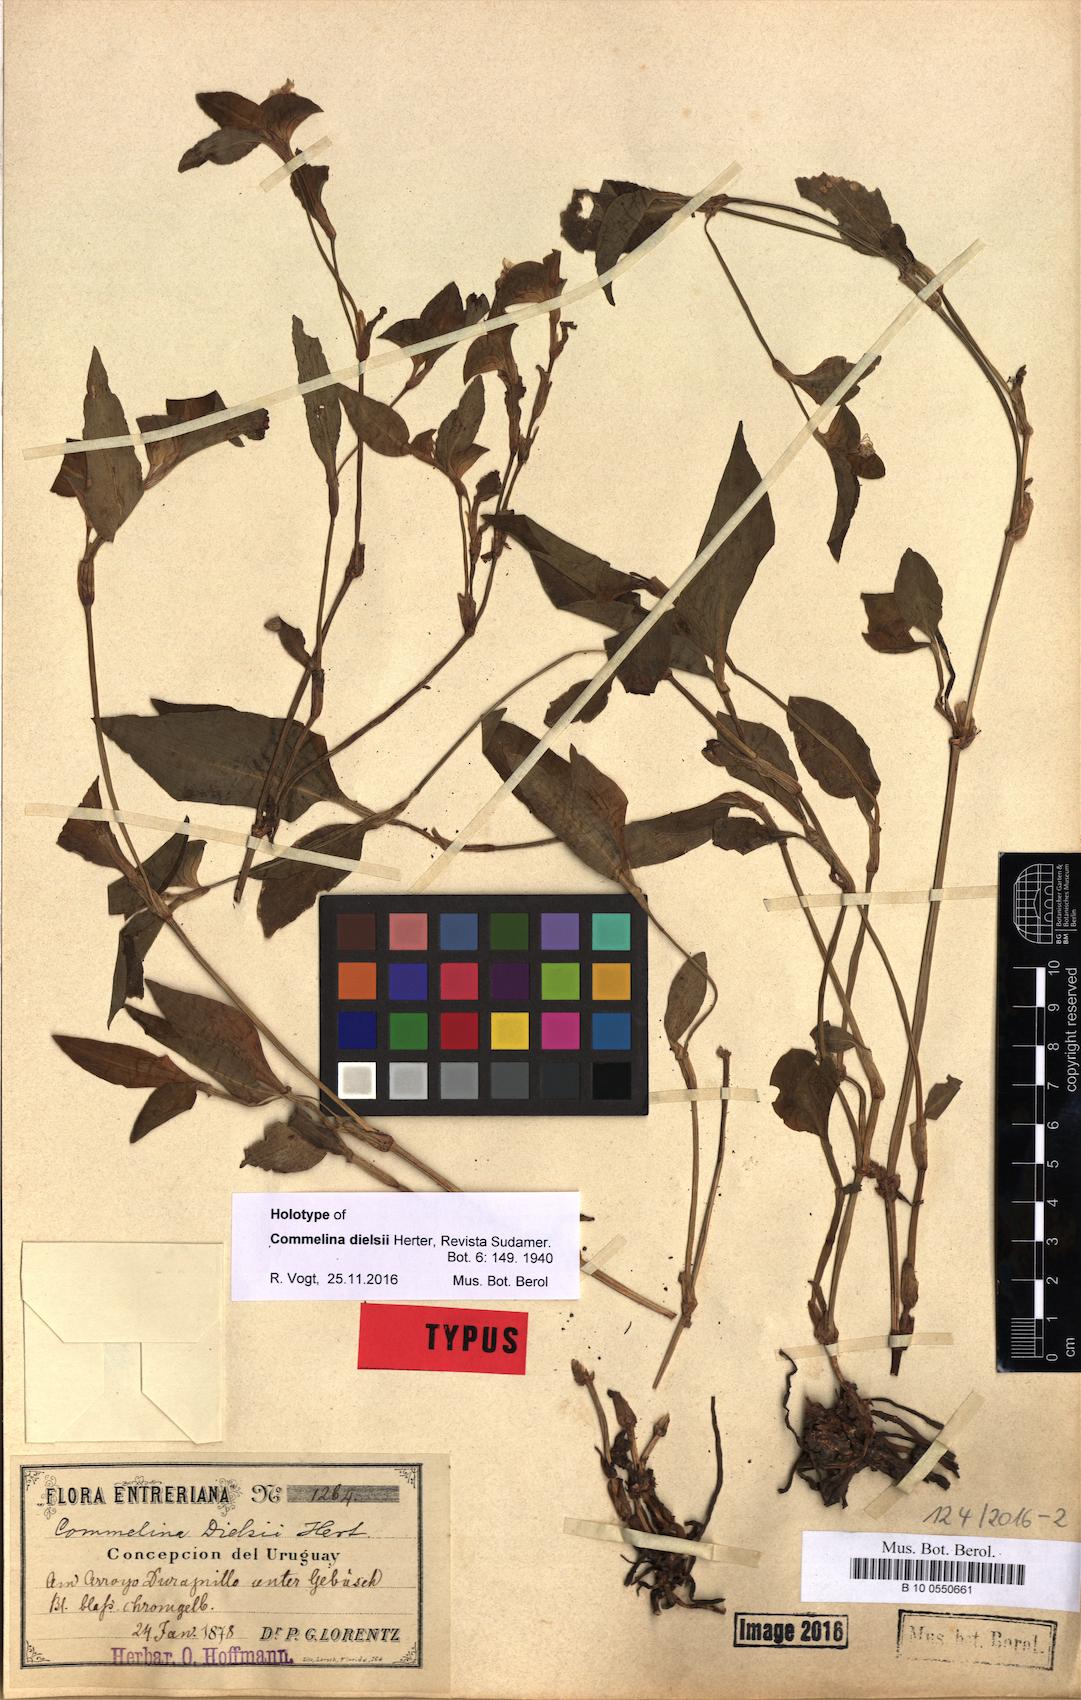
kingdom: Plantae
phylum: Tracheophyta
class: Liliopsida
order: Commelinales
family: Commelinaceae
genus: Commelina
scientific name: Commelina dielsii
